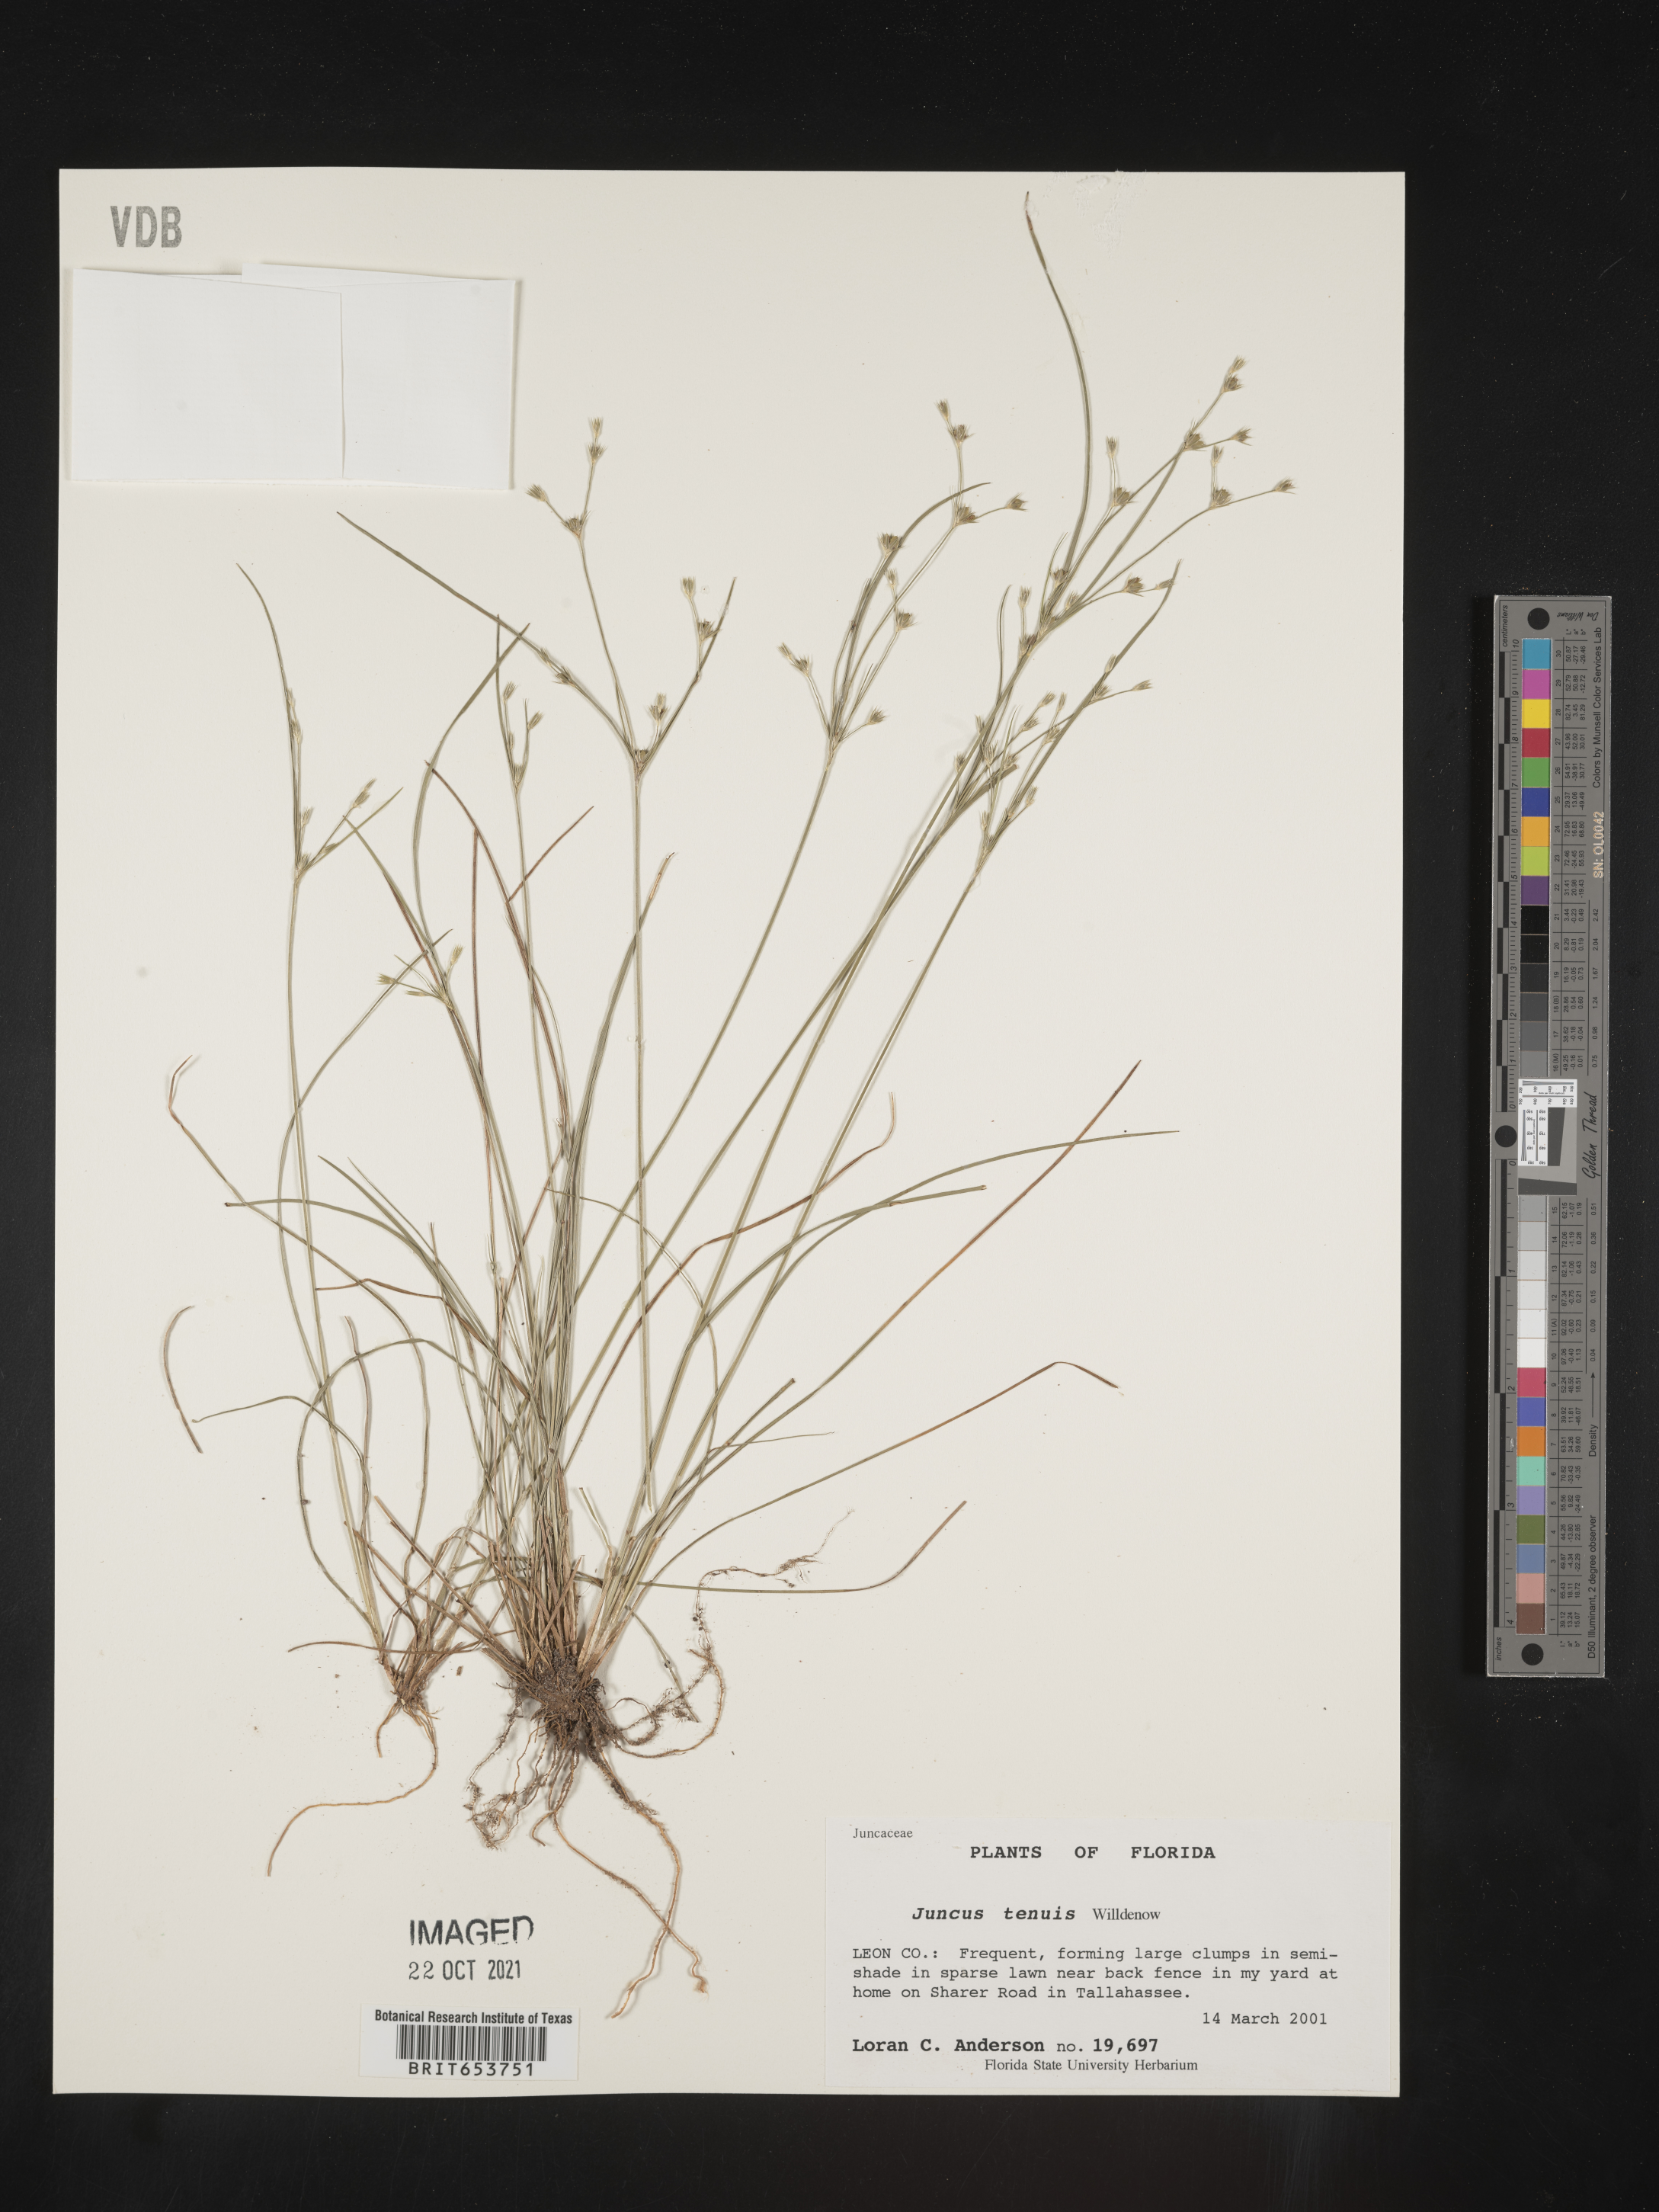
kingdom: Plantae
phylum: Tracheophyta
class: Liliopsida
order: Poales
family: Juncaceae
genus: Juncus
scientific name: Juncus tenuis
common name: Slender rush
